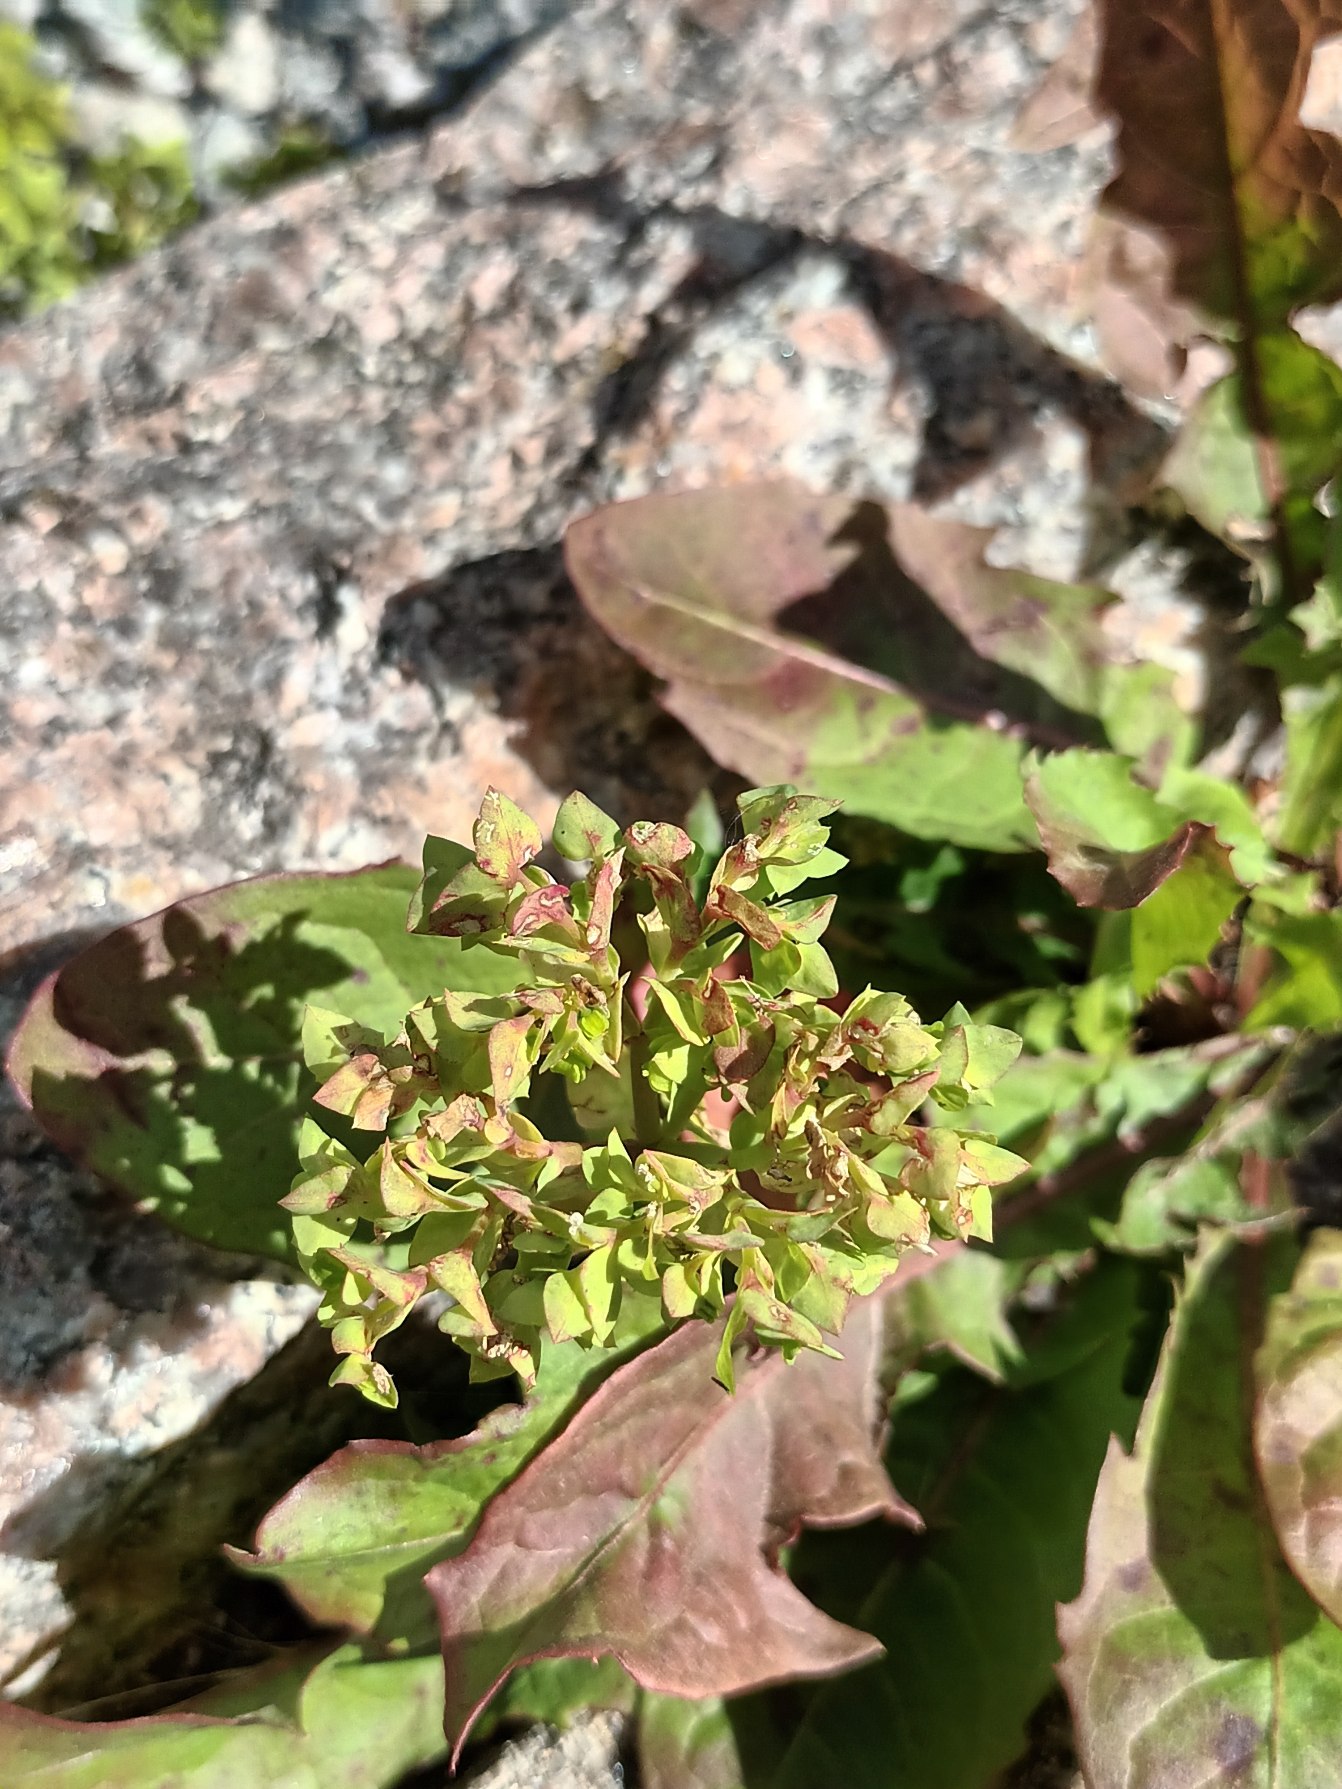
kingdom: Plantae
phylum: Tracheophyta
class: Magnoliopsida
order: Malpighiales
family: Euphorbiaceae
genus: Euphorbia
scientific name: Euphorbia peplus
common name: Gaffel-vortemælk
